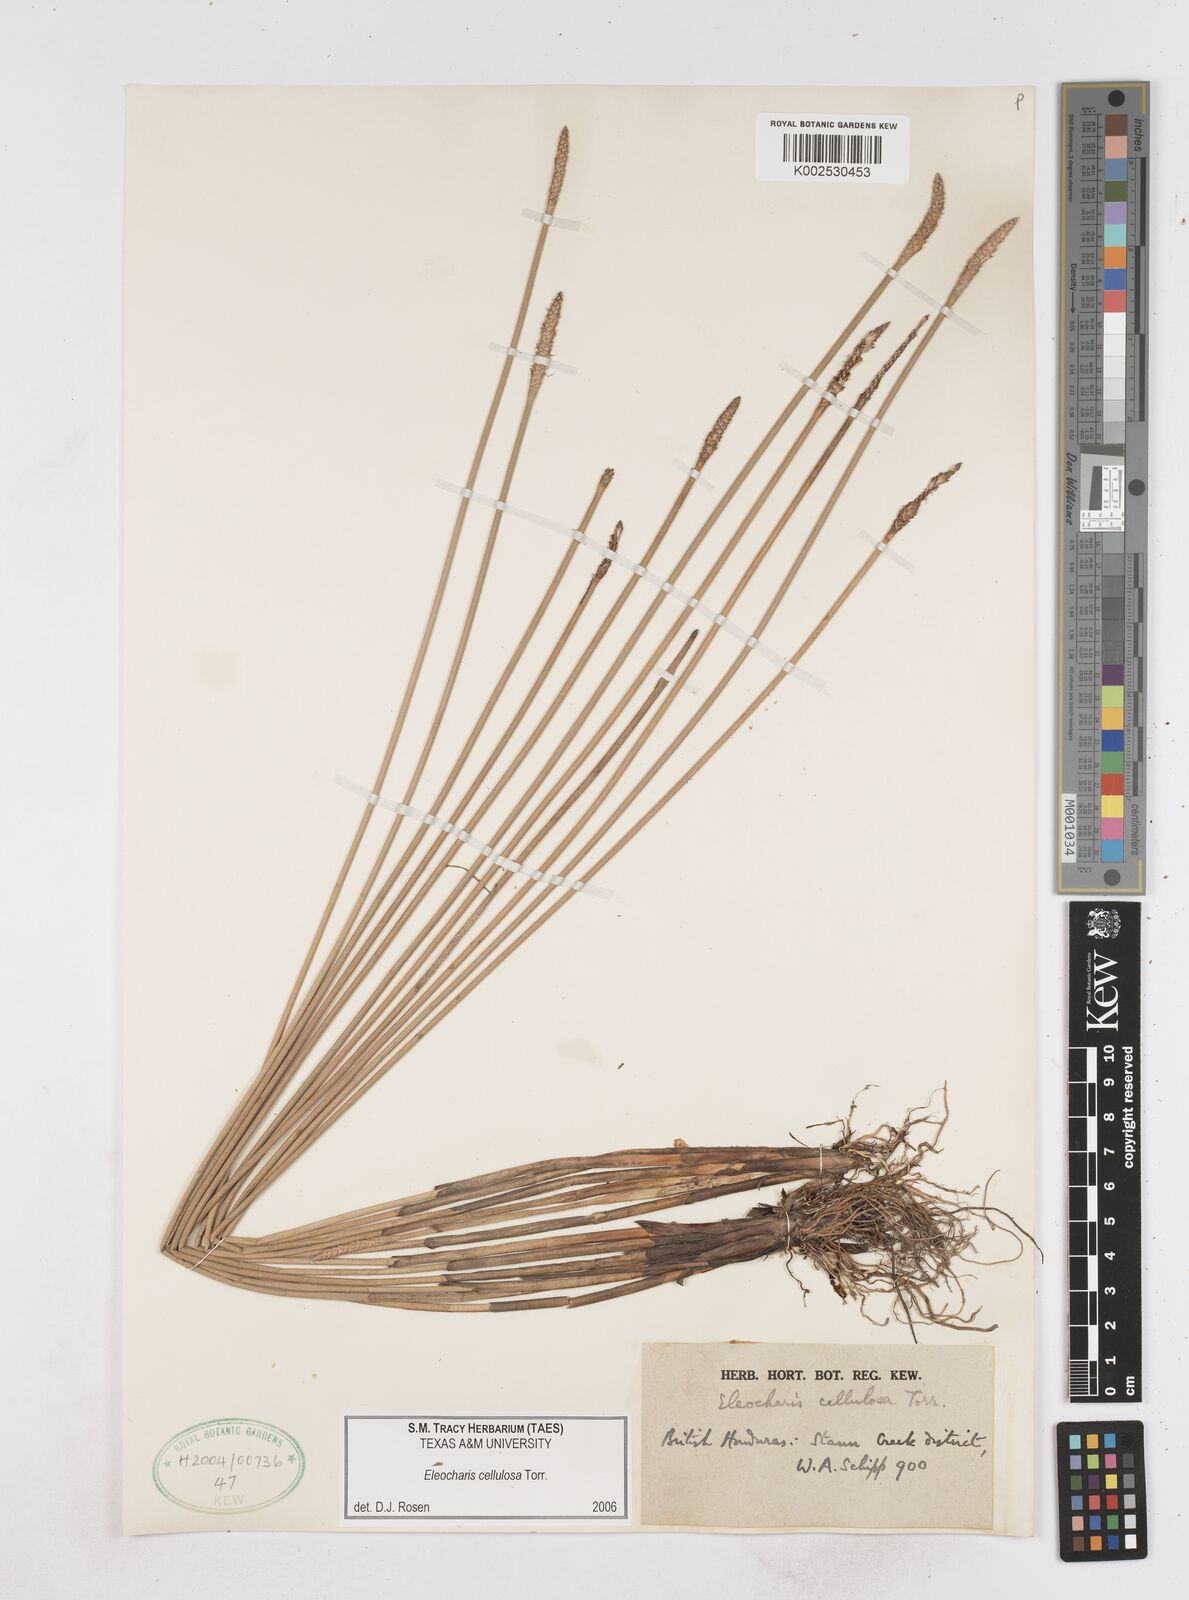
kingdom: Plantae
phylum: Tracheophyta
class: Liliopsida
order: Poales
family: Cyperaceae
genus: Eleocharis
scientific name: Eleocharis cellulosa
